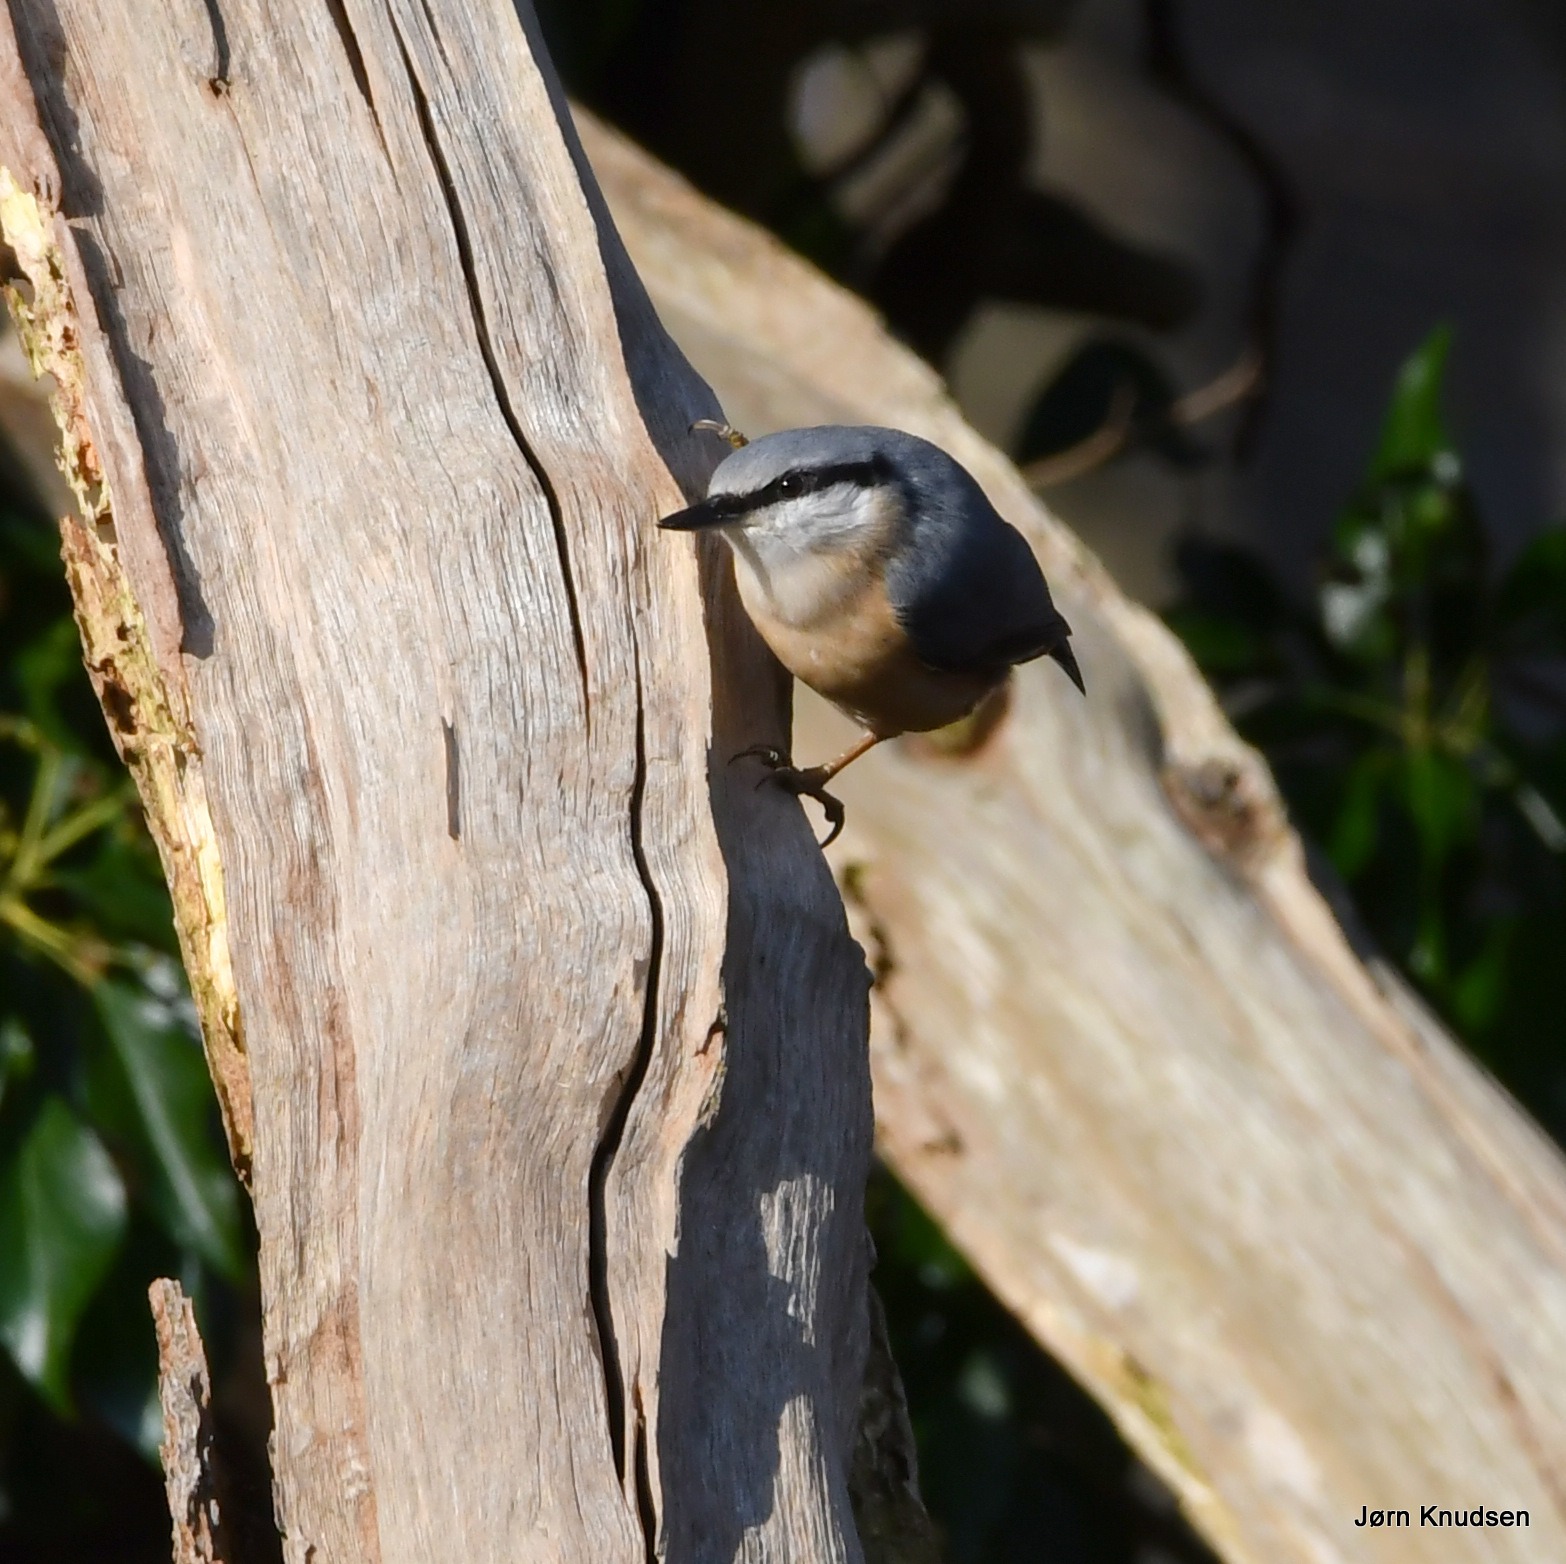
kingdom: Animalia
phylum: Chordata
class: Aves
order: Passeriformes
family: Sittidae
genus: Sitta
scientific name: Sitta europaea
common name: Spætmejse
